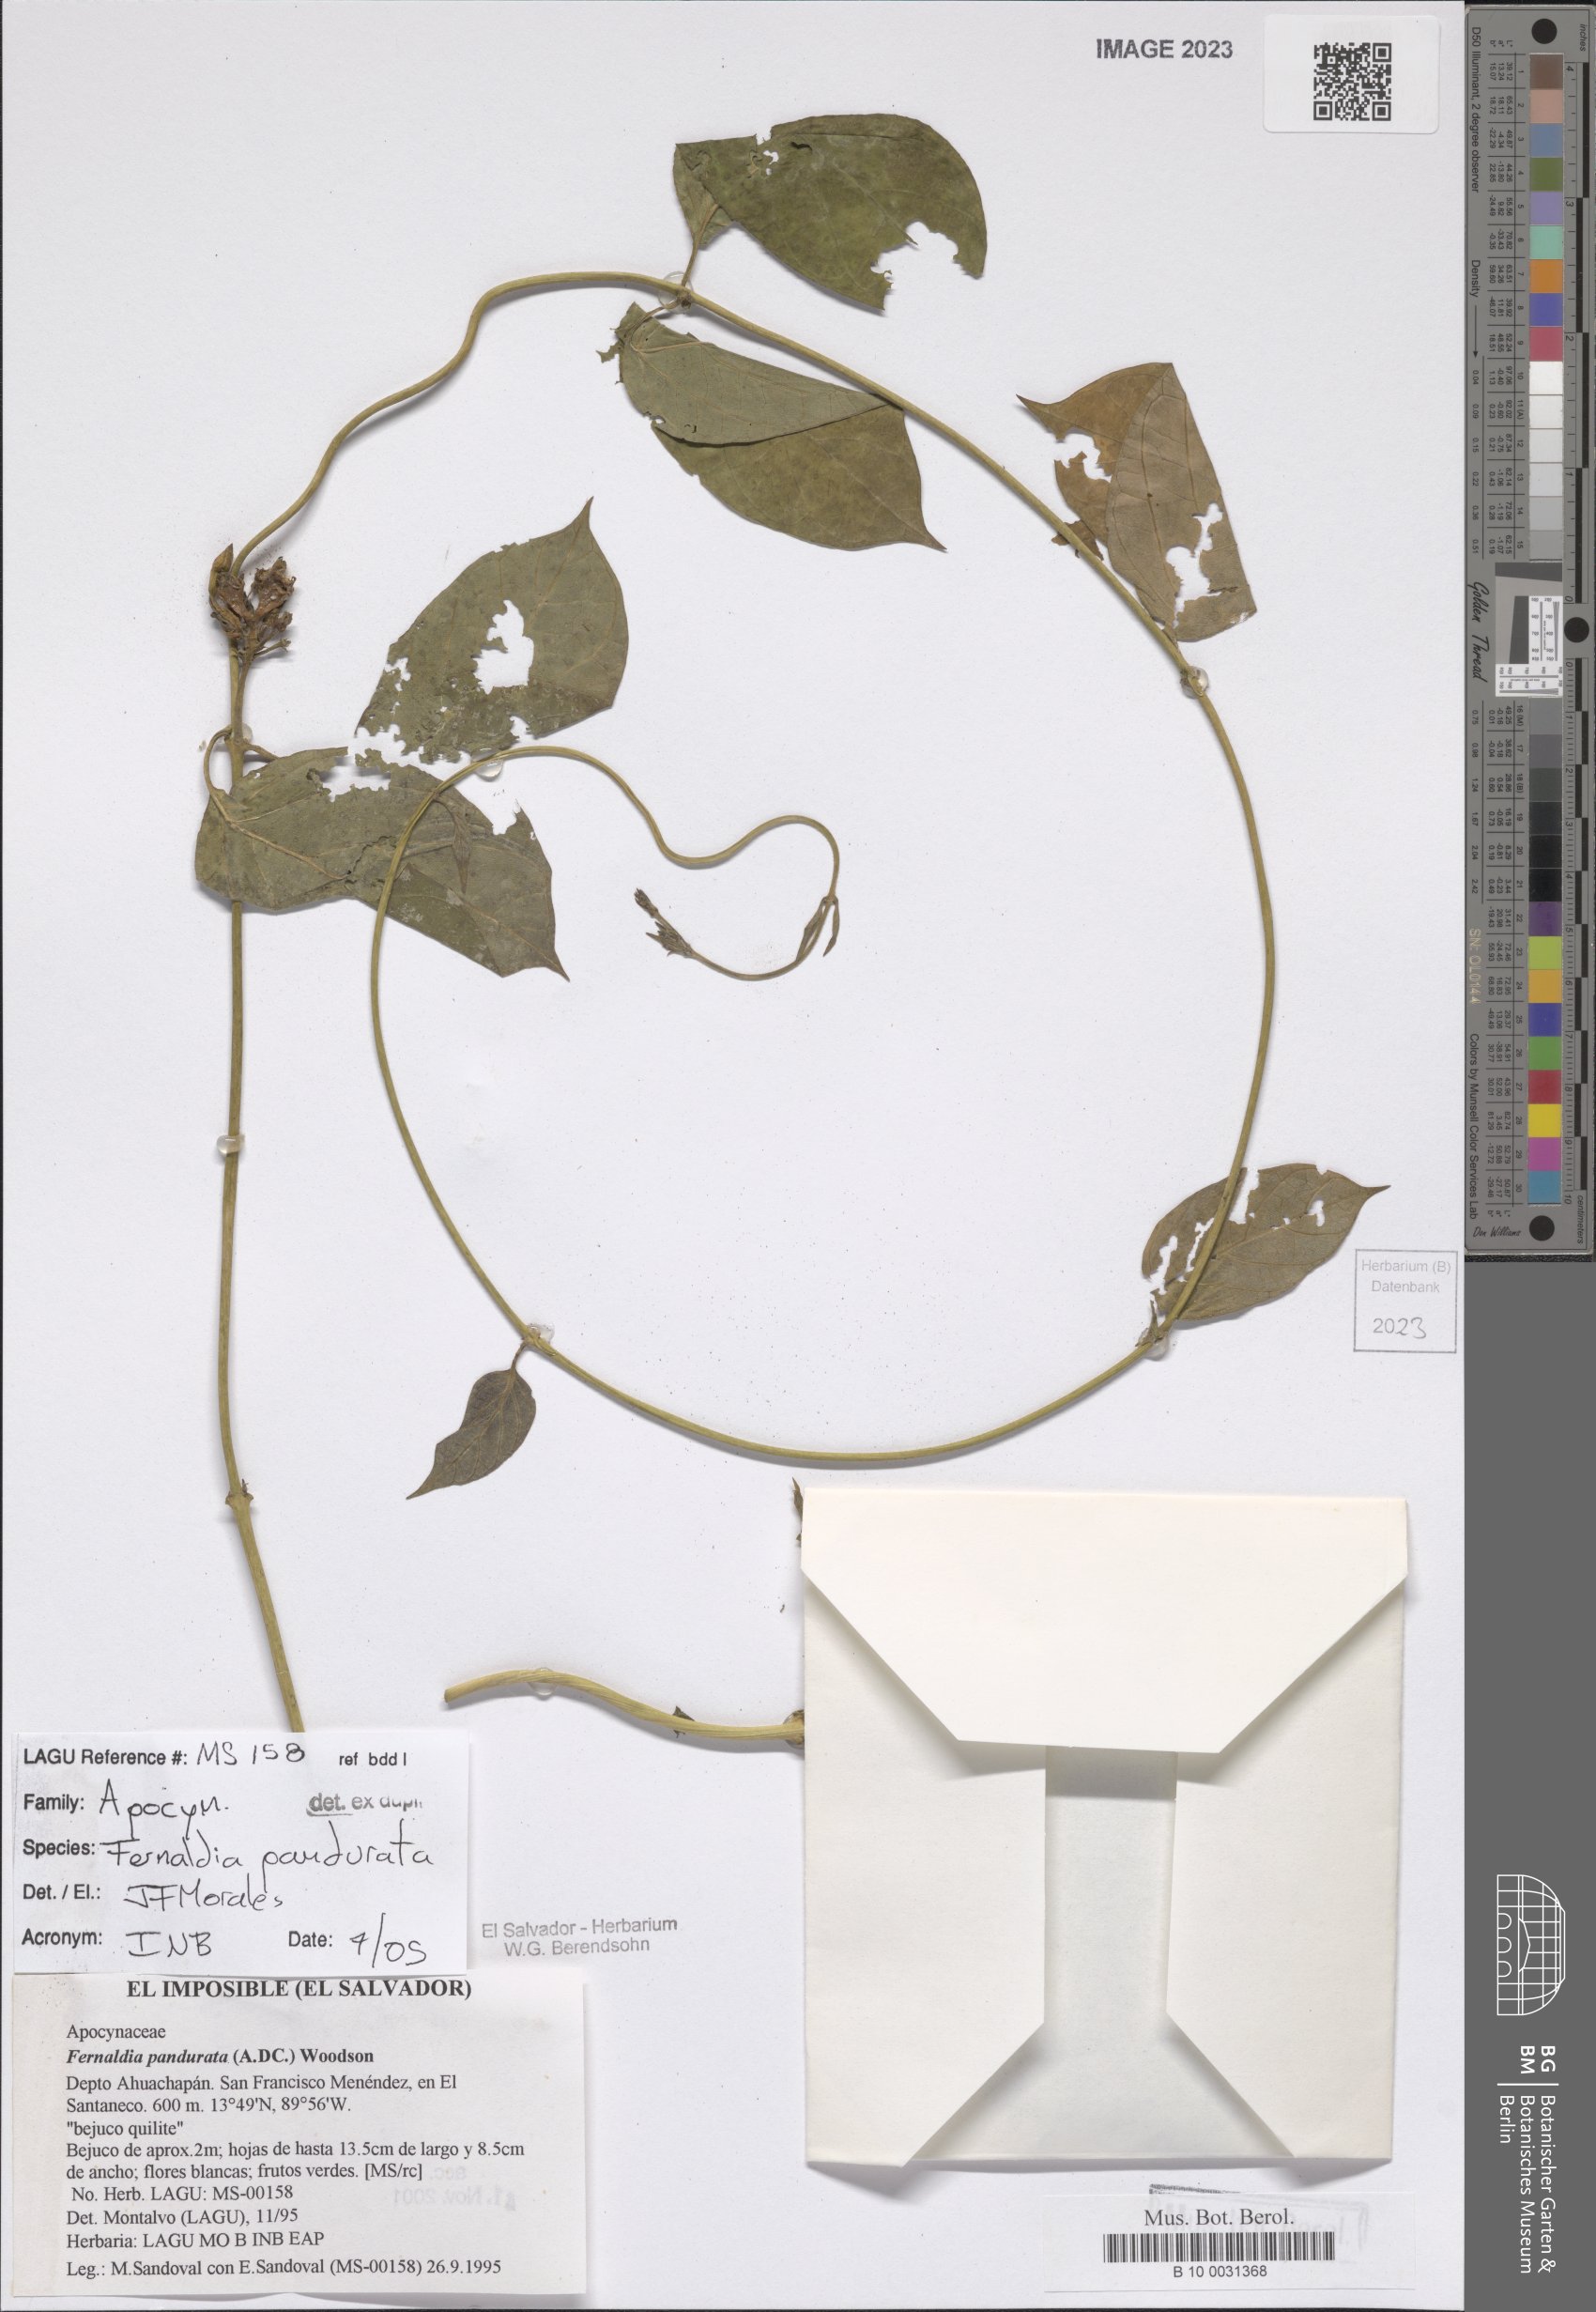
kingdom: Plantae
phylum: Tracheophyta
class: Magnoliopsida
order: Gentianales
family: Apocynaceae
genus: Echites
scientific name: Echites panduratus
